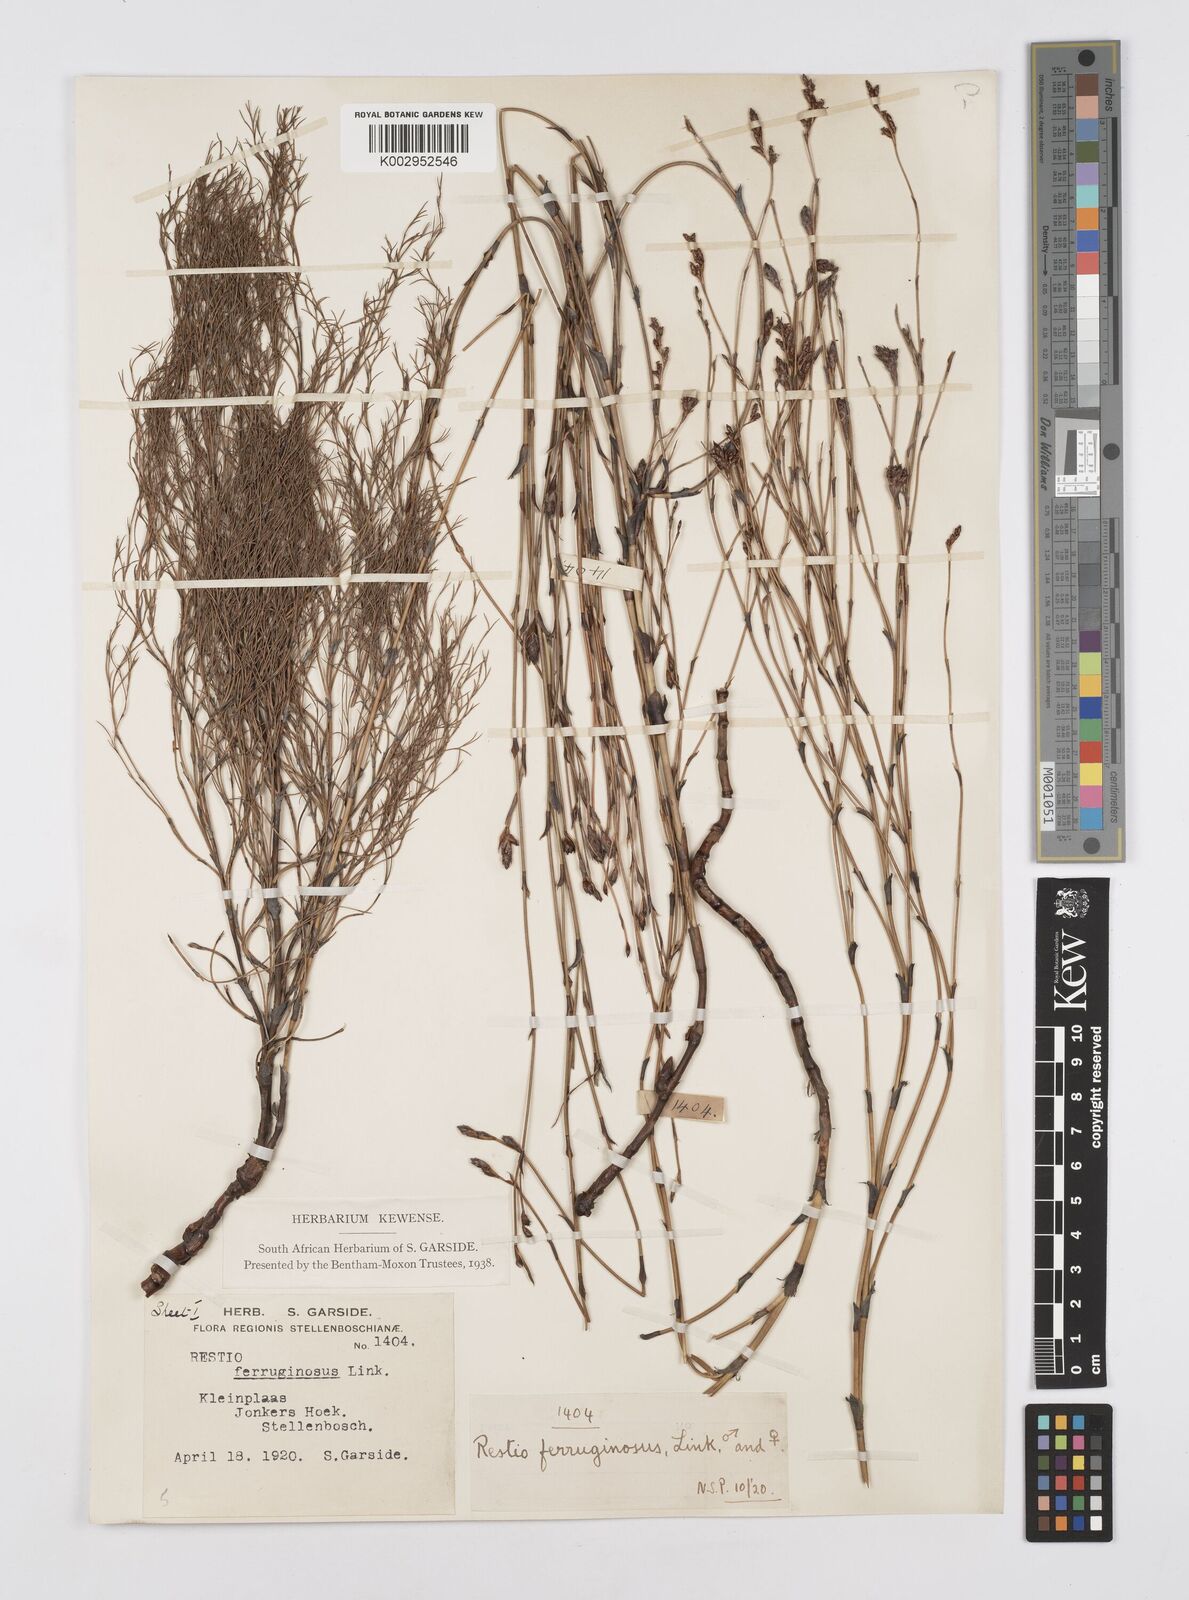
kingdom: Plantae
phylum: Tracheophyta
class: Liliopsida
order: Poales
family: Restionaceae
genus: Restio
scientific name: Restio gaudichaudianus
